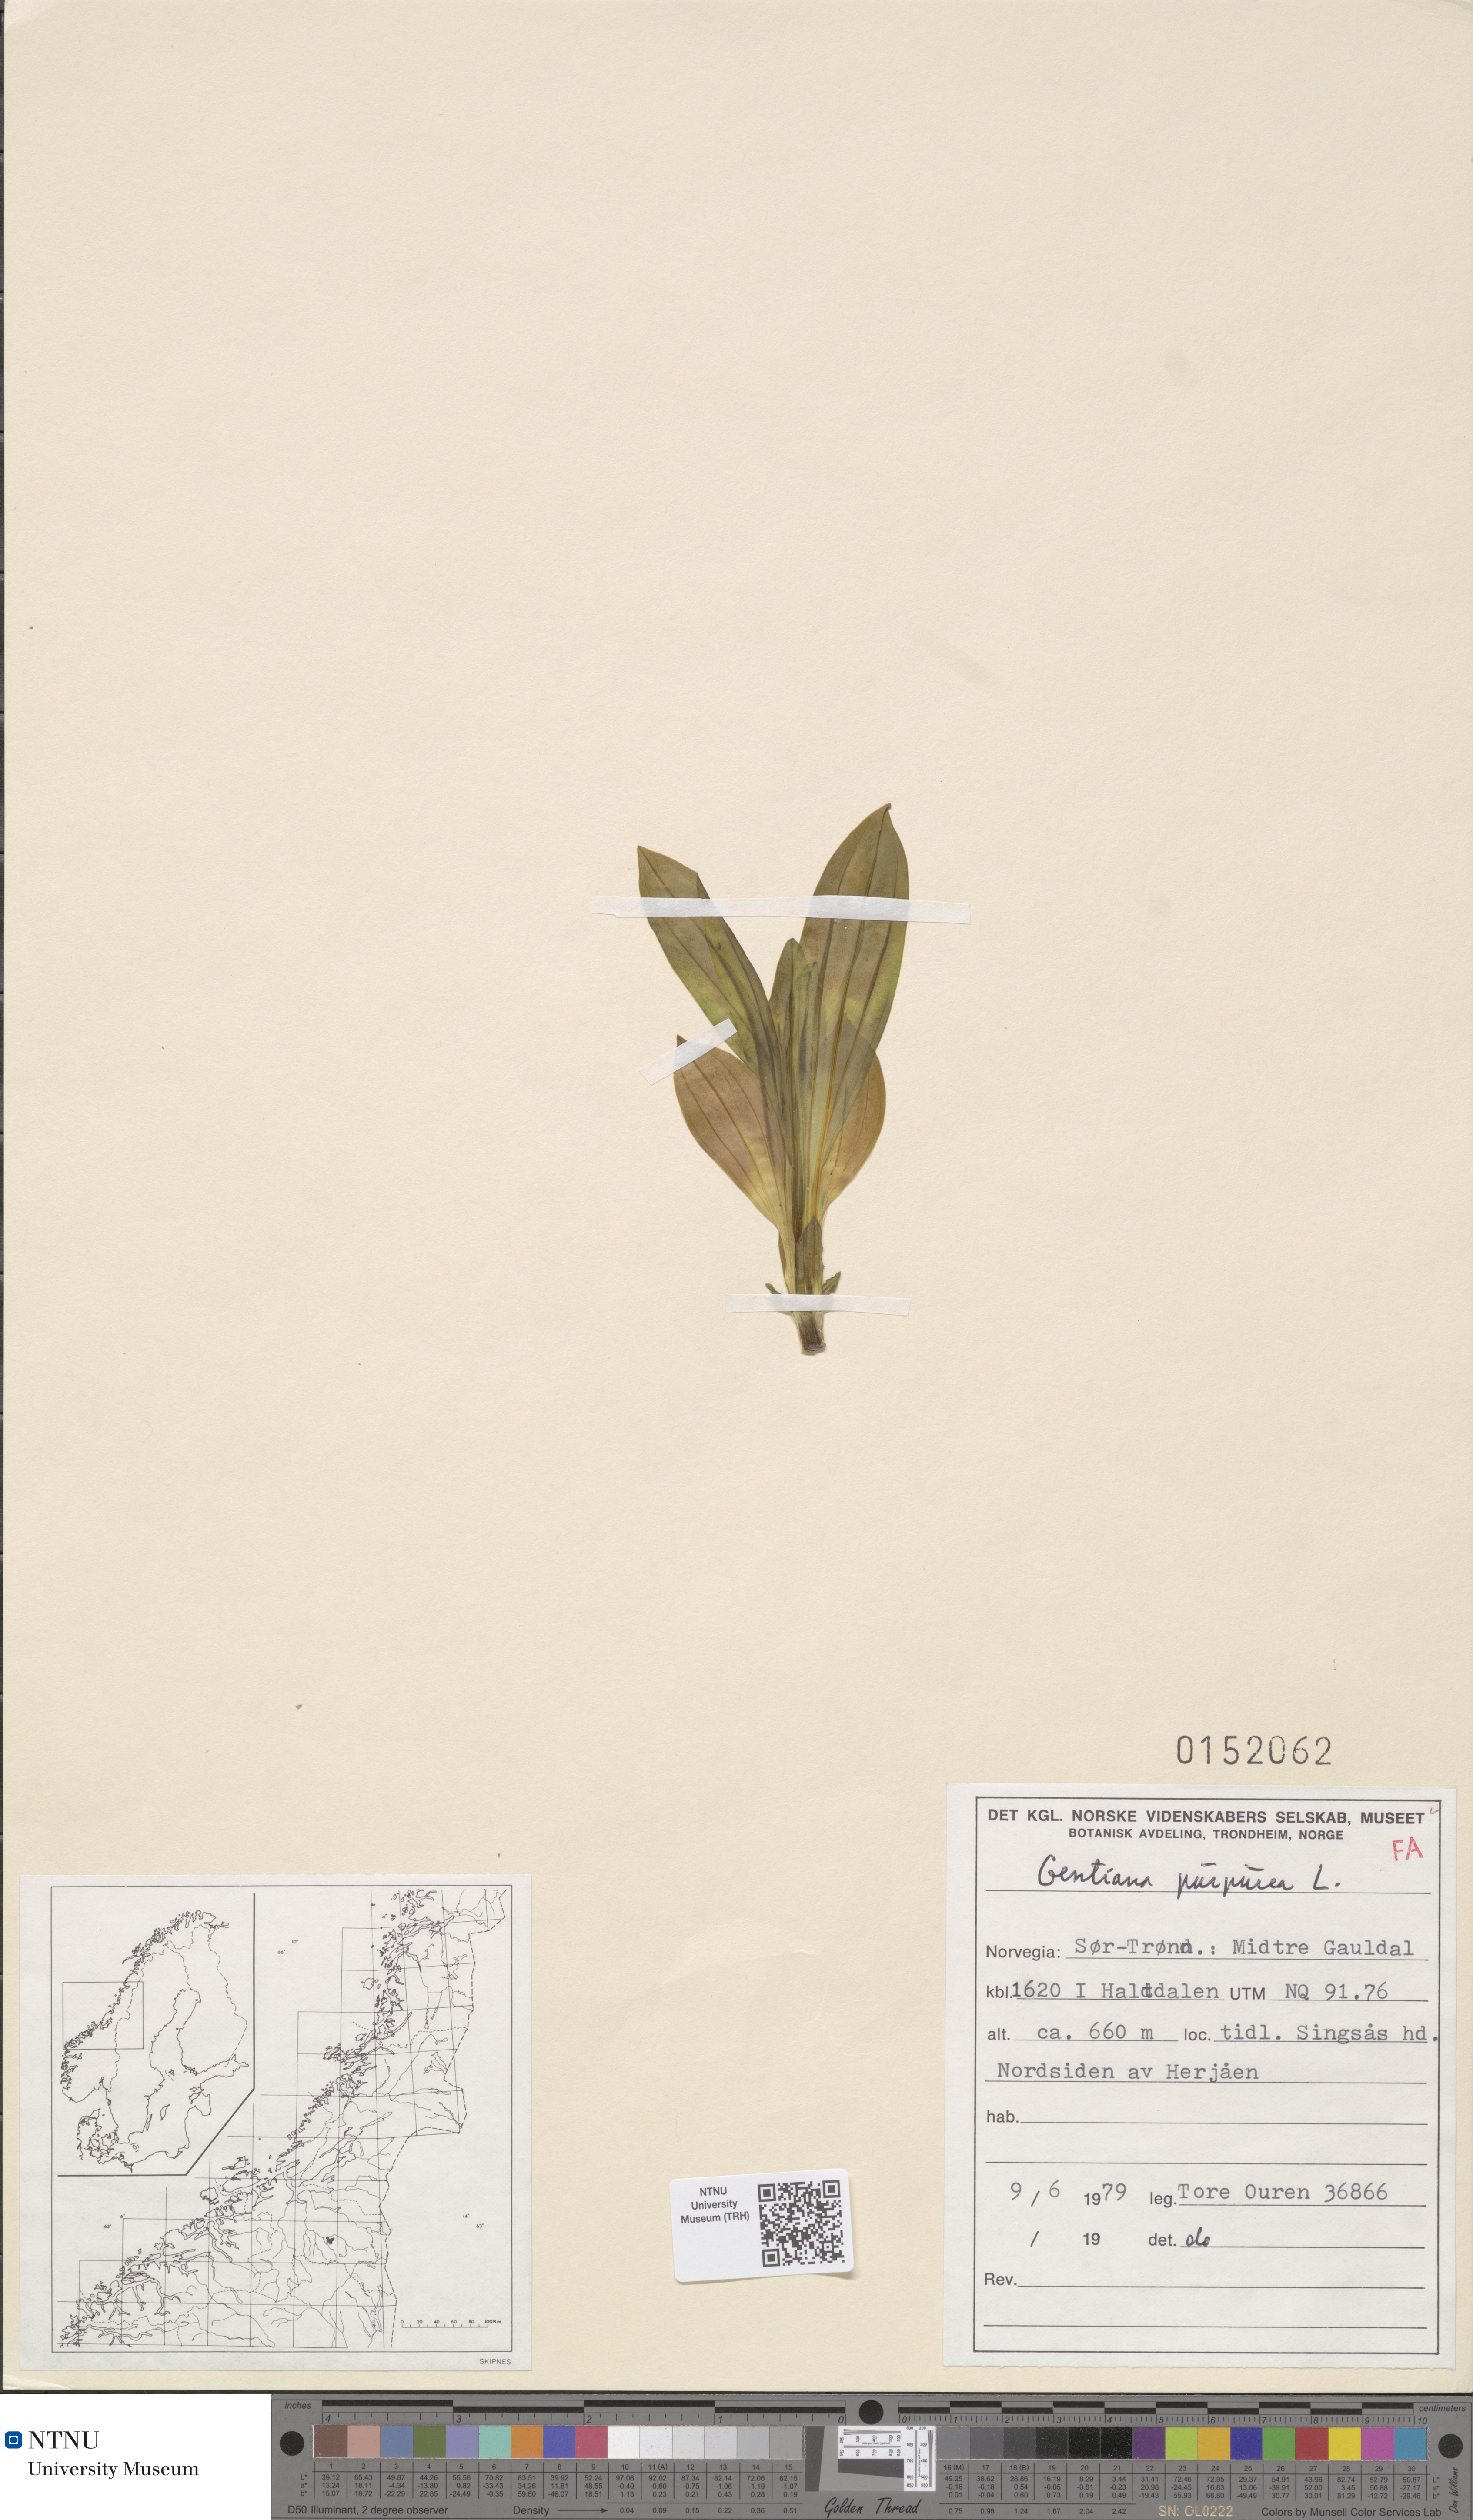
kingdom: Plantae
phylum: Tracheophyta
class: Magnoliopsida
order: Gentianales
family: Gentianaceae
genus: Gentiana
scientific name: Gentiana purpurea
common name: Purple gentian
